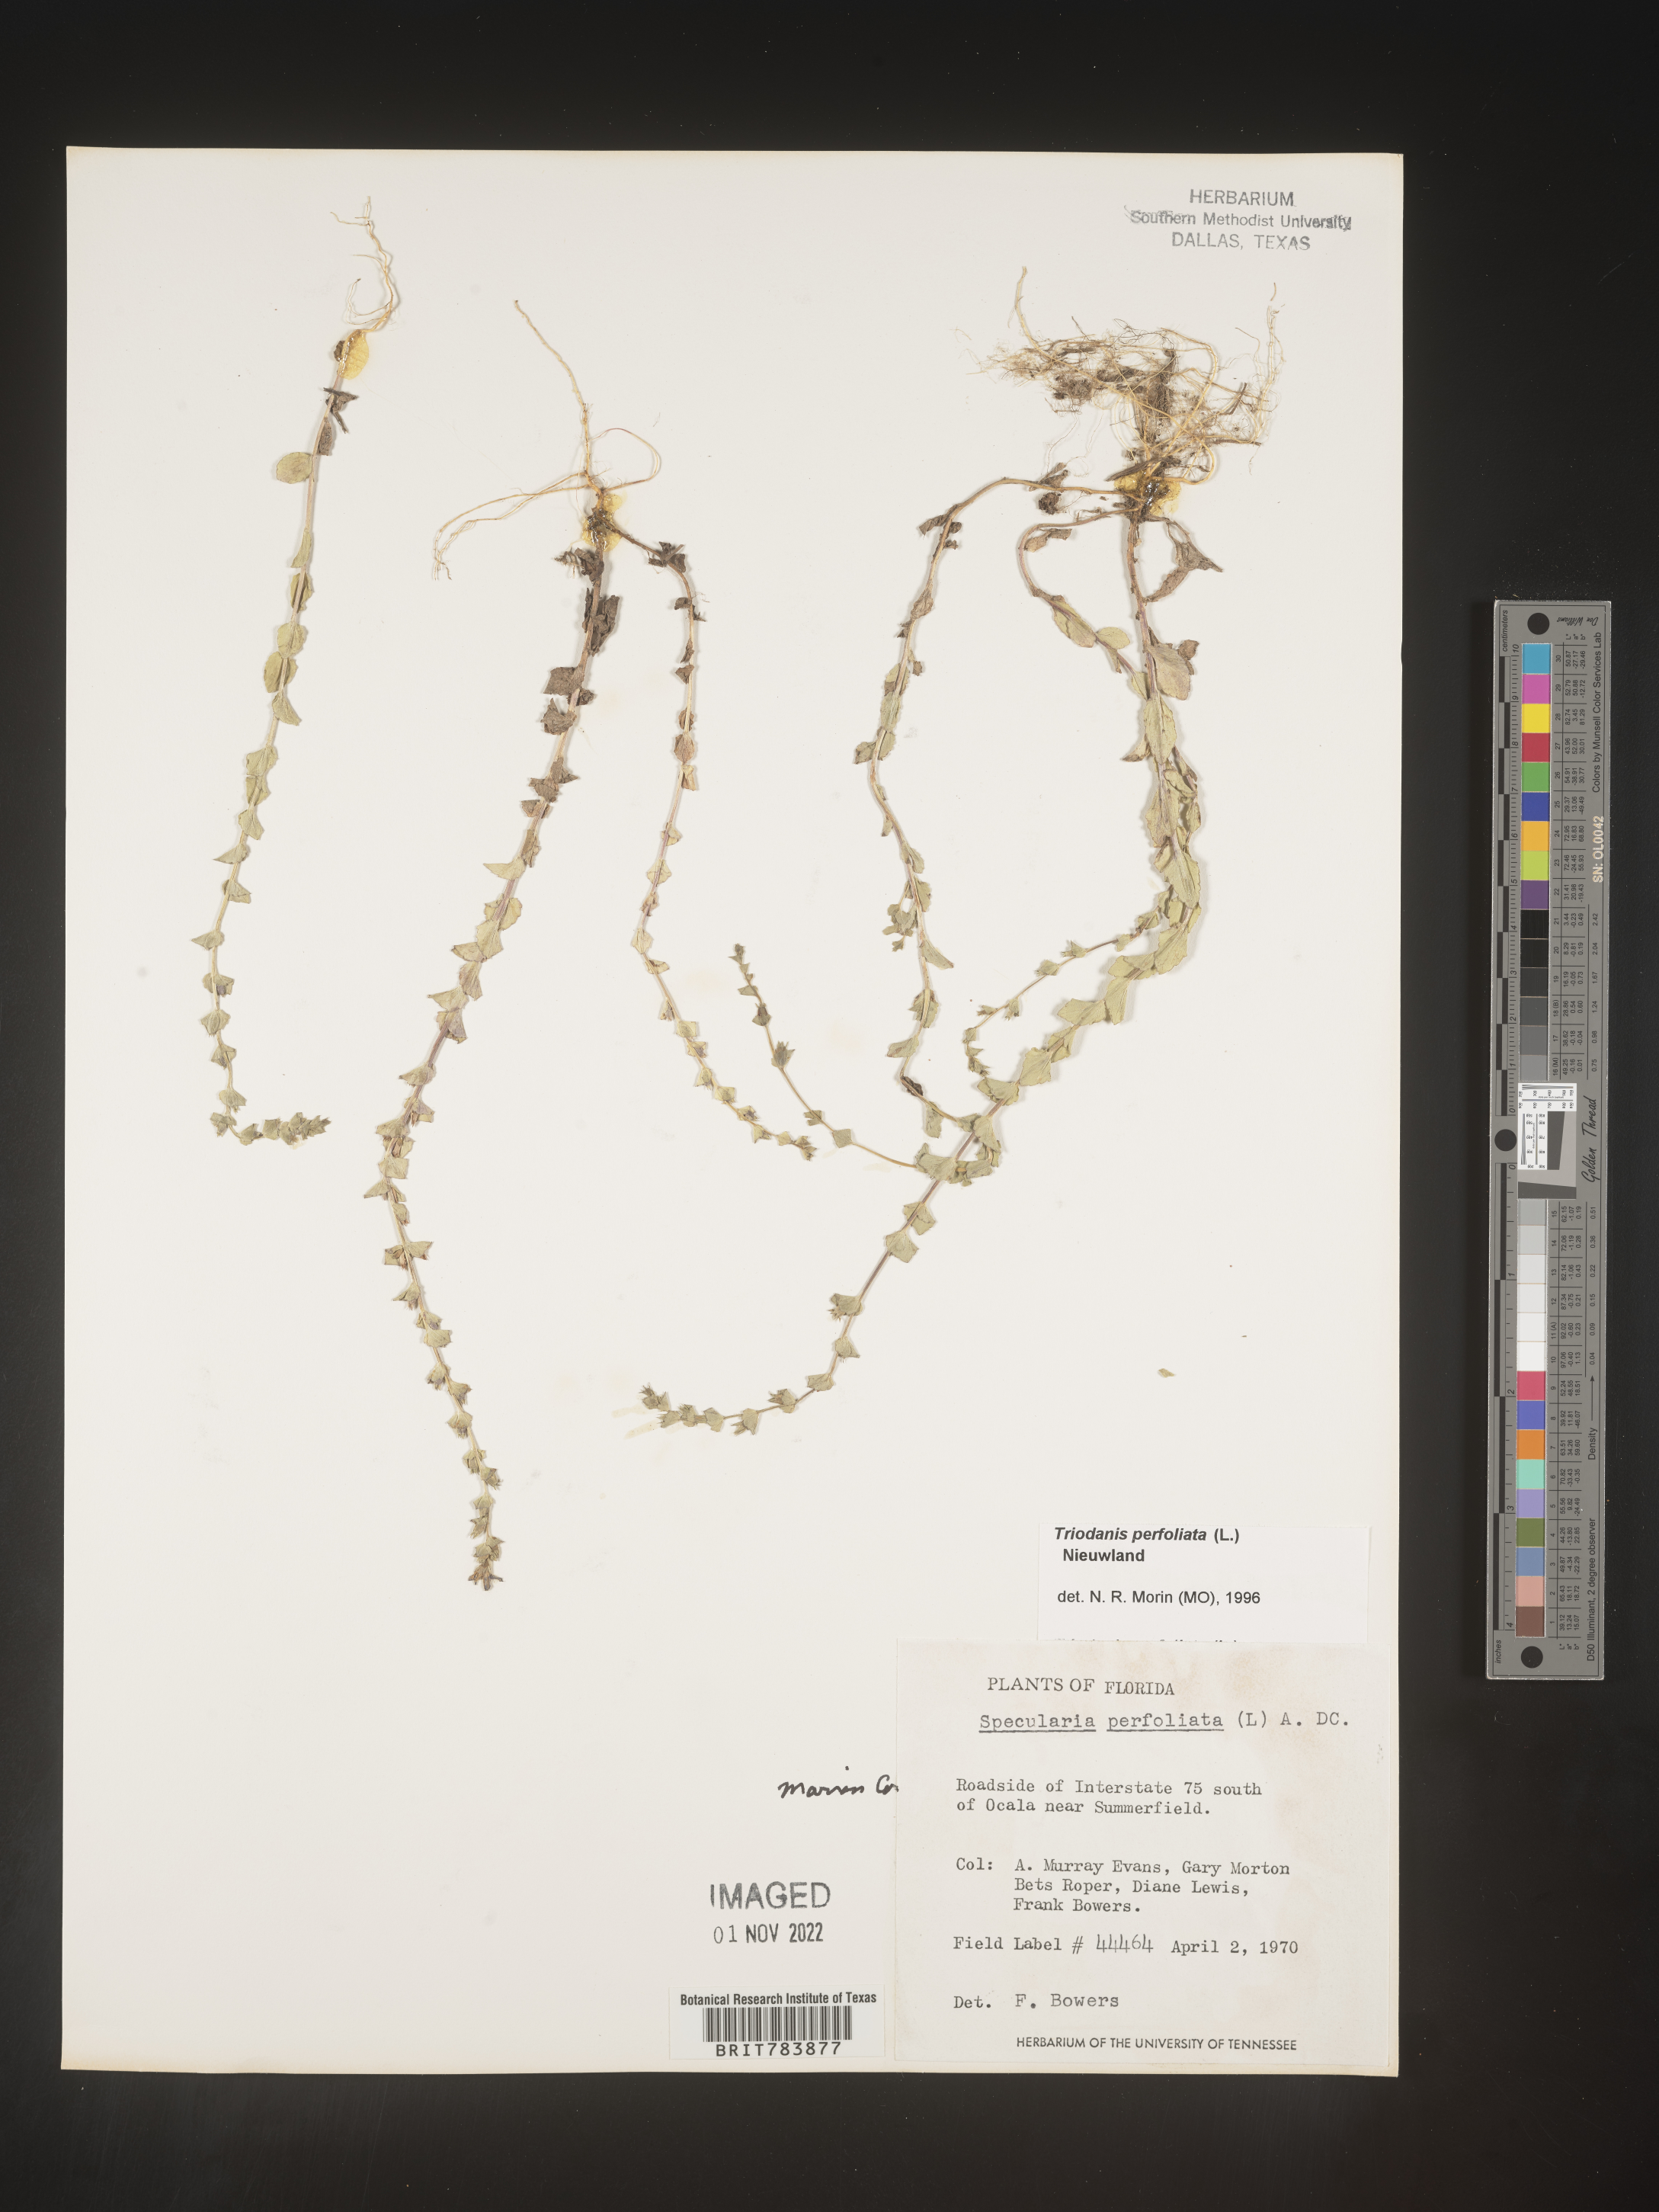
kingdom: Plantae
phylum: Tracheophyta
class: Magnoliopsida
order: Asterales
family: Campanulaceae
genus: Triodanis
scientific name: Triodanis perfoliata
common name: Clasping venus' looking-glass
